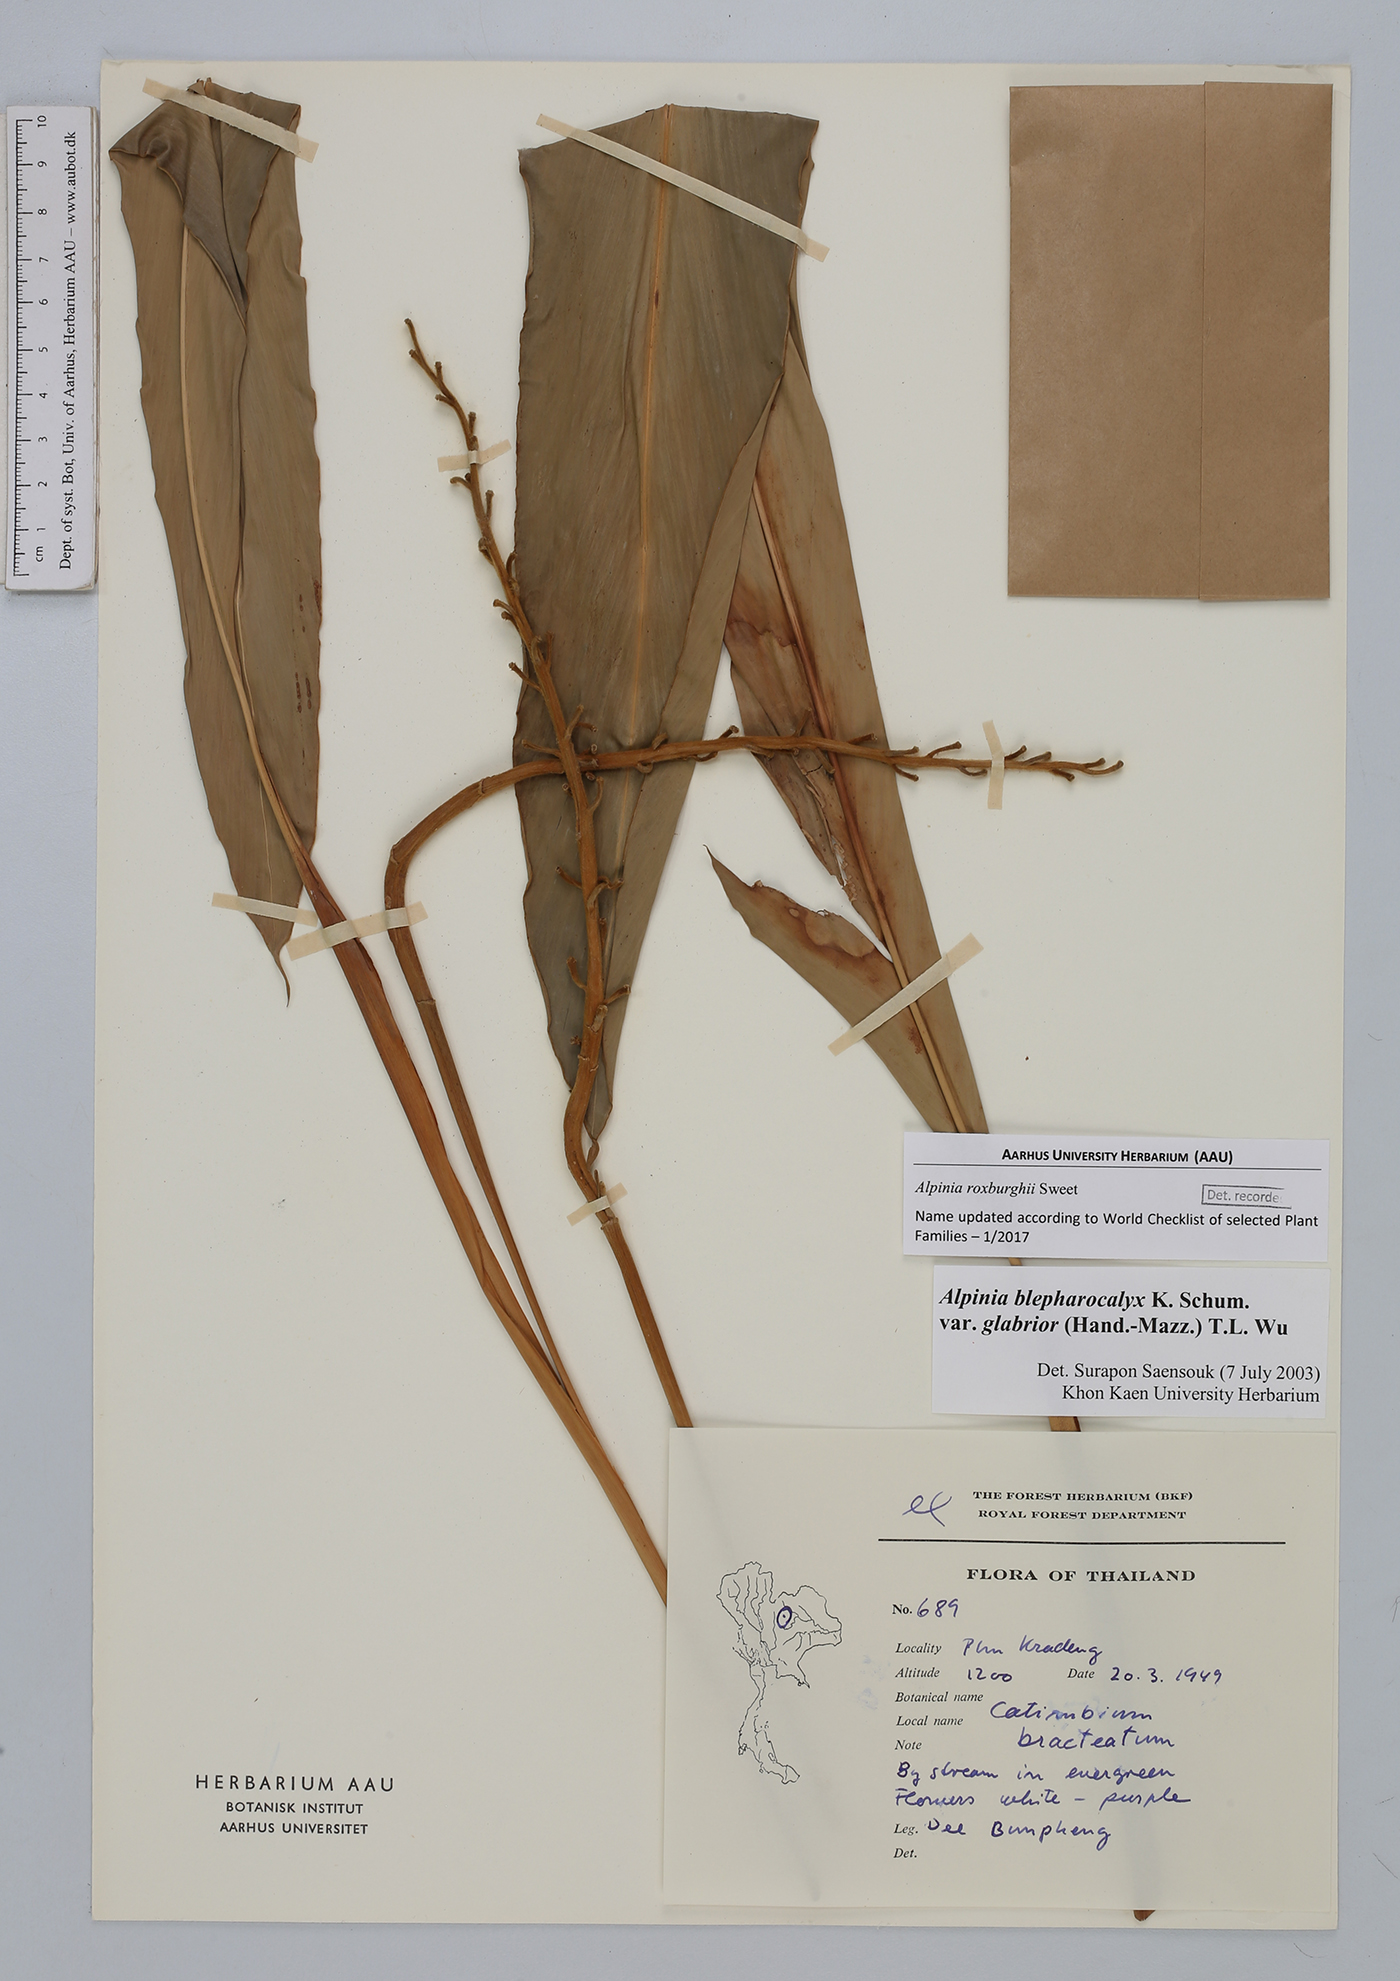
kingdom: Plantae
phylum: Tracheophyta
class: Liliopsida
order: Zingiberales
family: Zingiberaceae
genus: Alpinia
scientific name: Alpinia roxburghii
